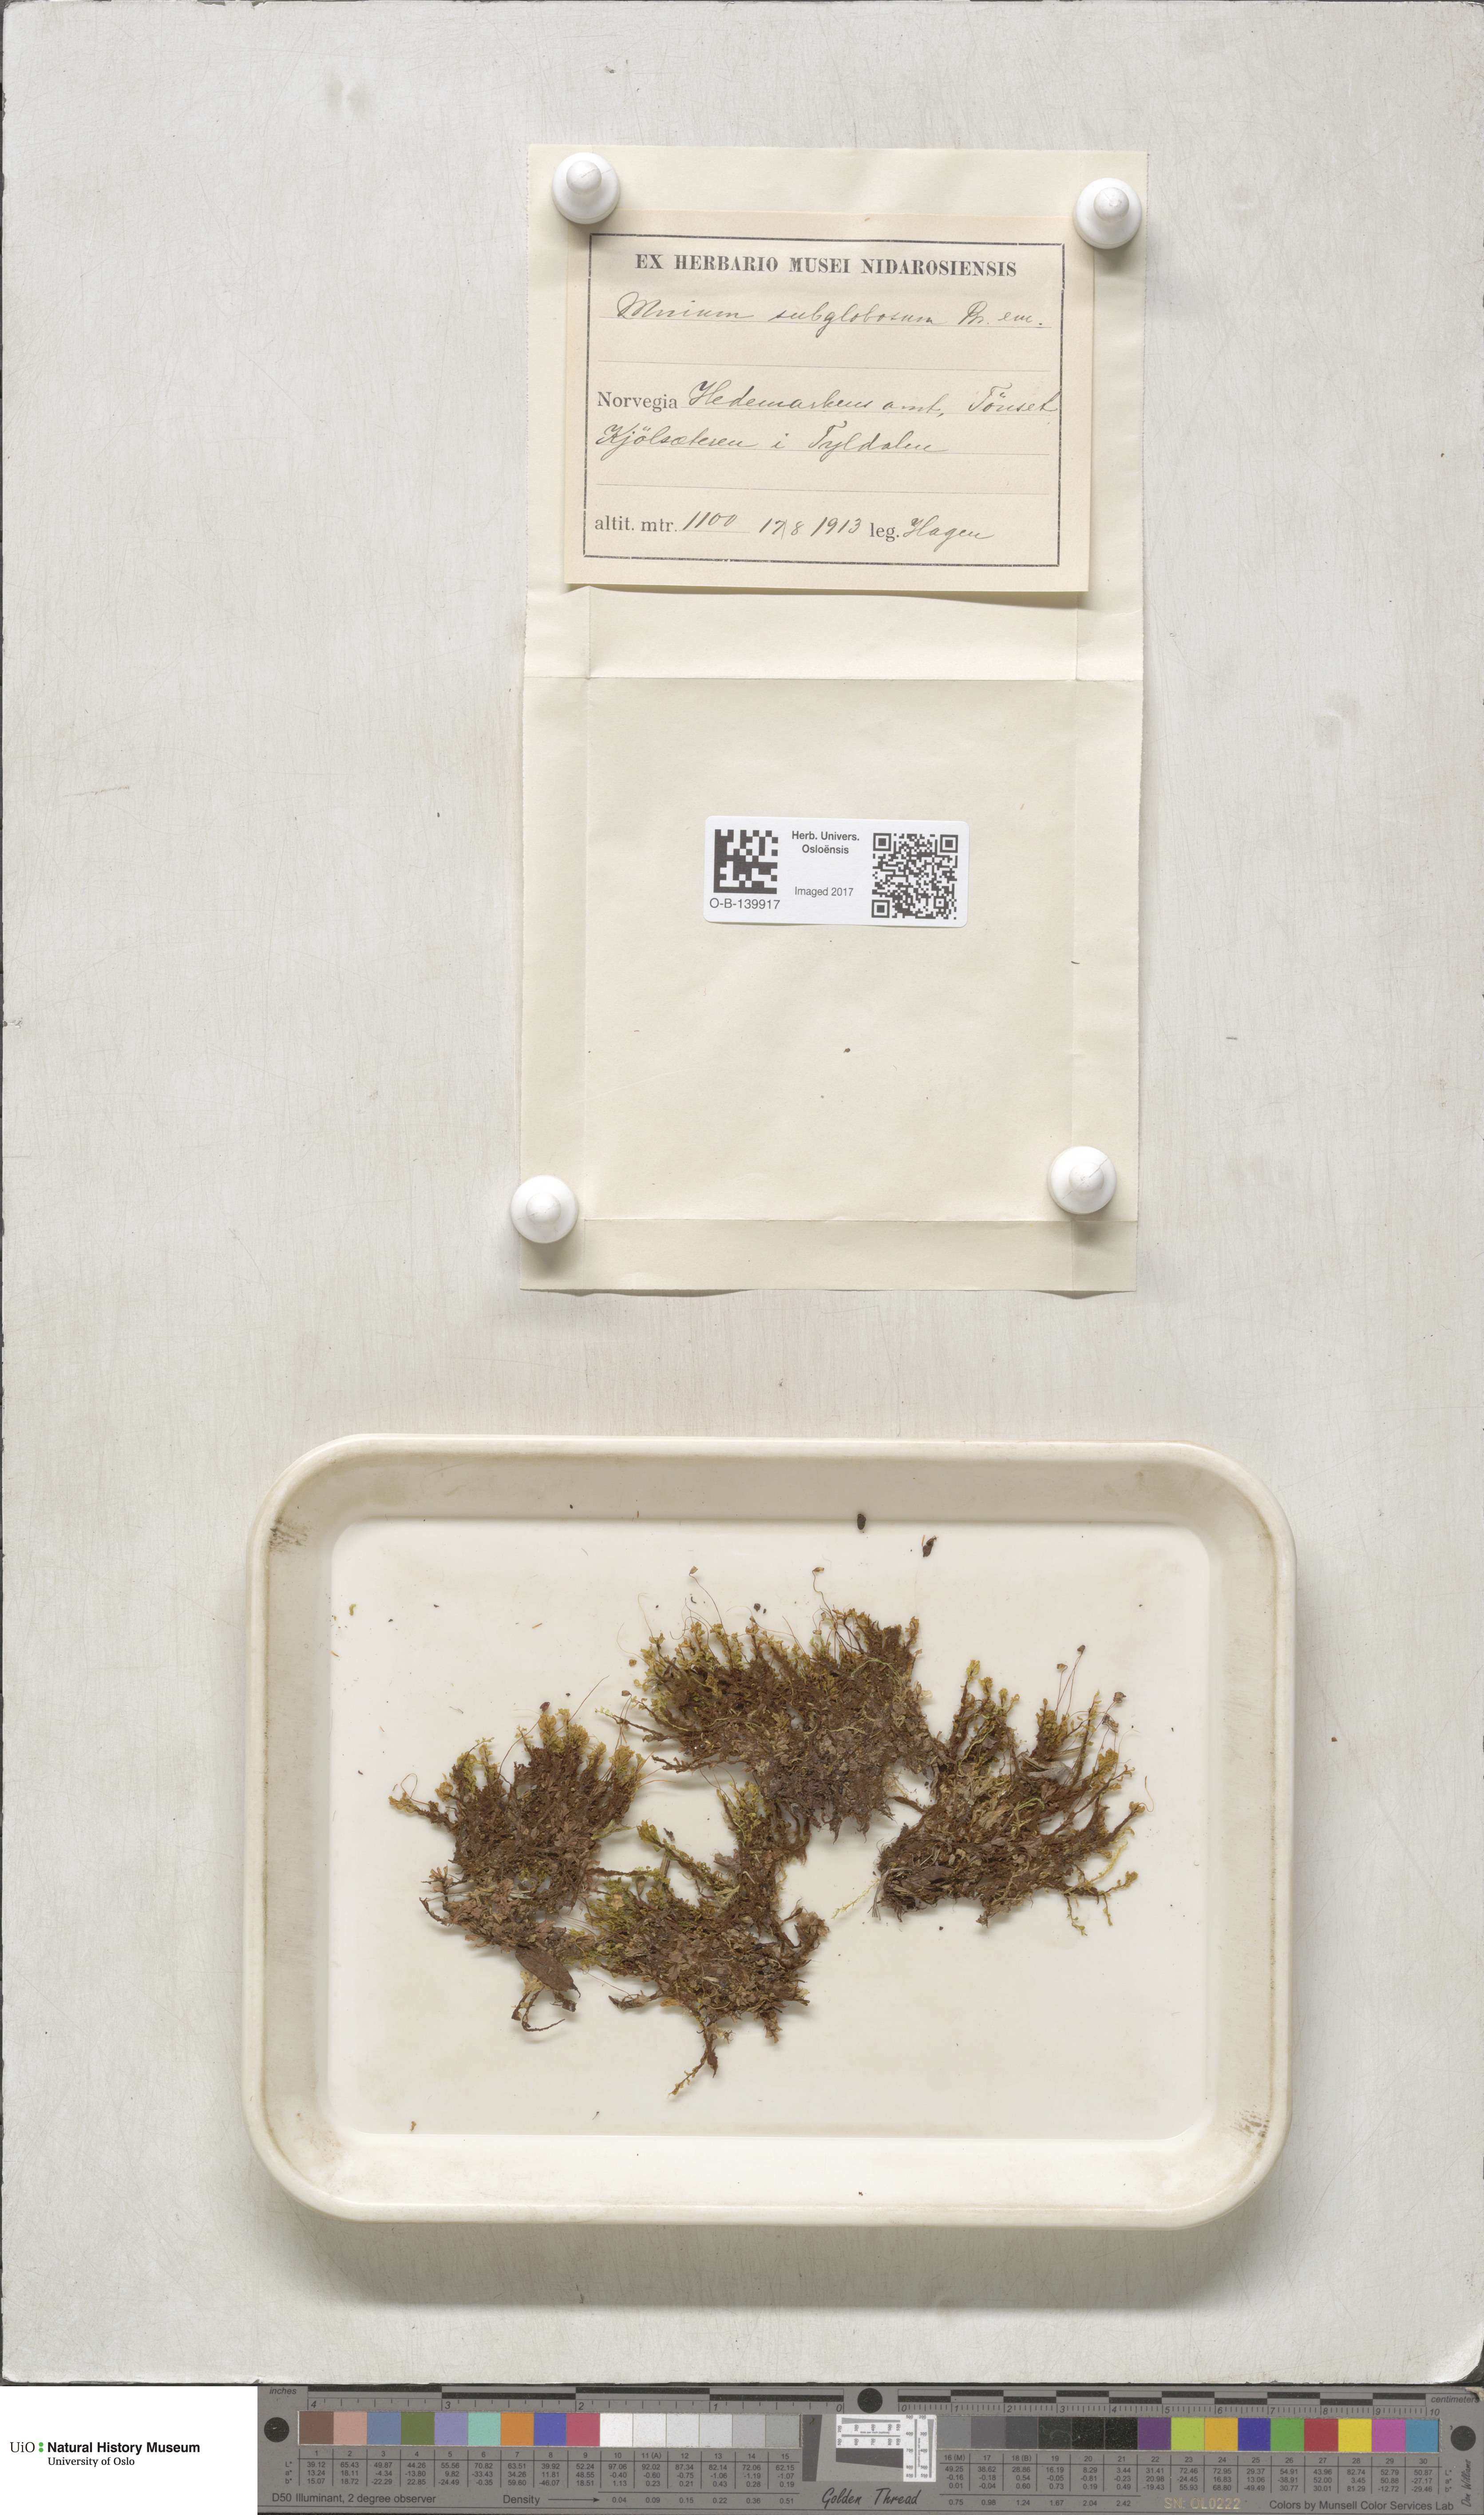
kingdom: Plantae
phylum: Bryophyta
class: Bryopsida
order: Bryales
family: Mniaceae
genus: Rhizomnium
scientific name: Rhizomnium pseudopunctatum
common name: Felted leafy moss
